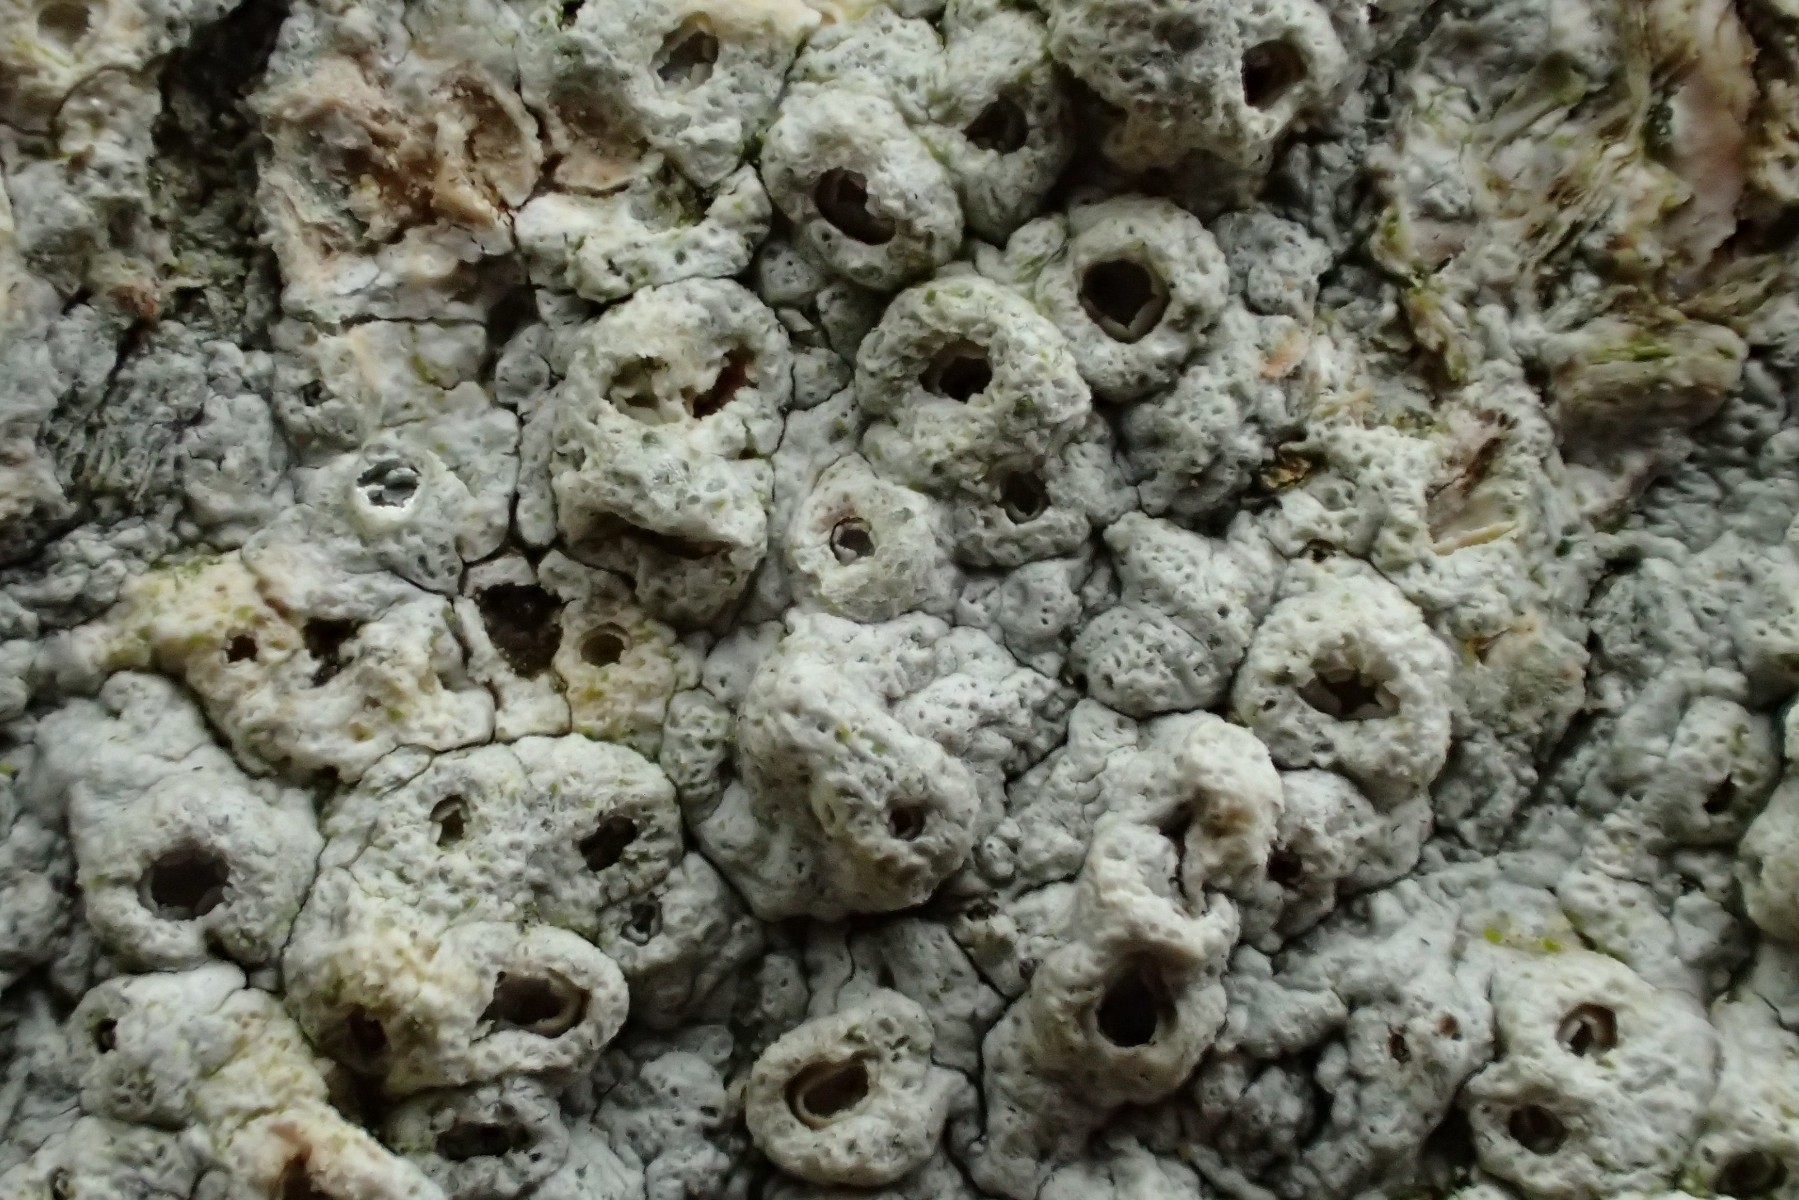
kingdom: Fungi
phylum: Ascomycota
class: Lecanoromycetes
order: Ostropales
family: Graphidaceae
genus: Thelotrema
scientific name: Thelotrema lepadinum
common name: almindelig slørkantlav
